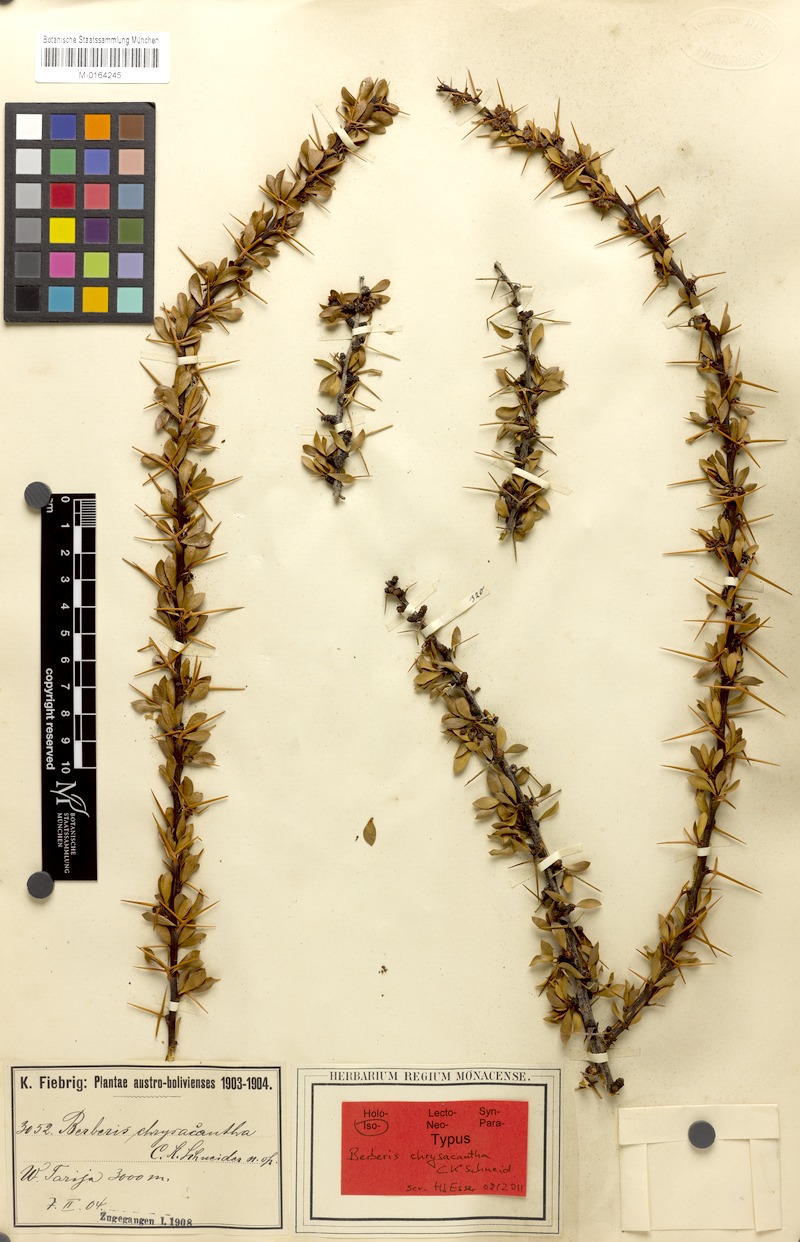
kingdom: Plantae
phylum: Tracheophyta
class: Magnoliopsida
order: Ranunculales
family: Berberidaceae
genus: Berberis
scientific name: Berberis boliviana
